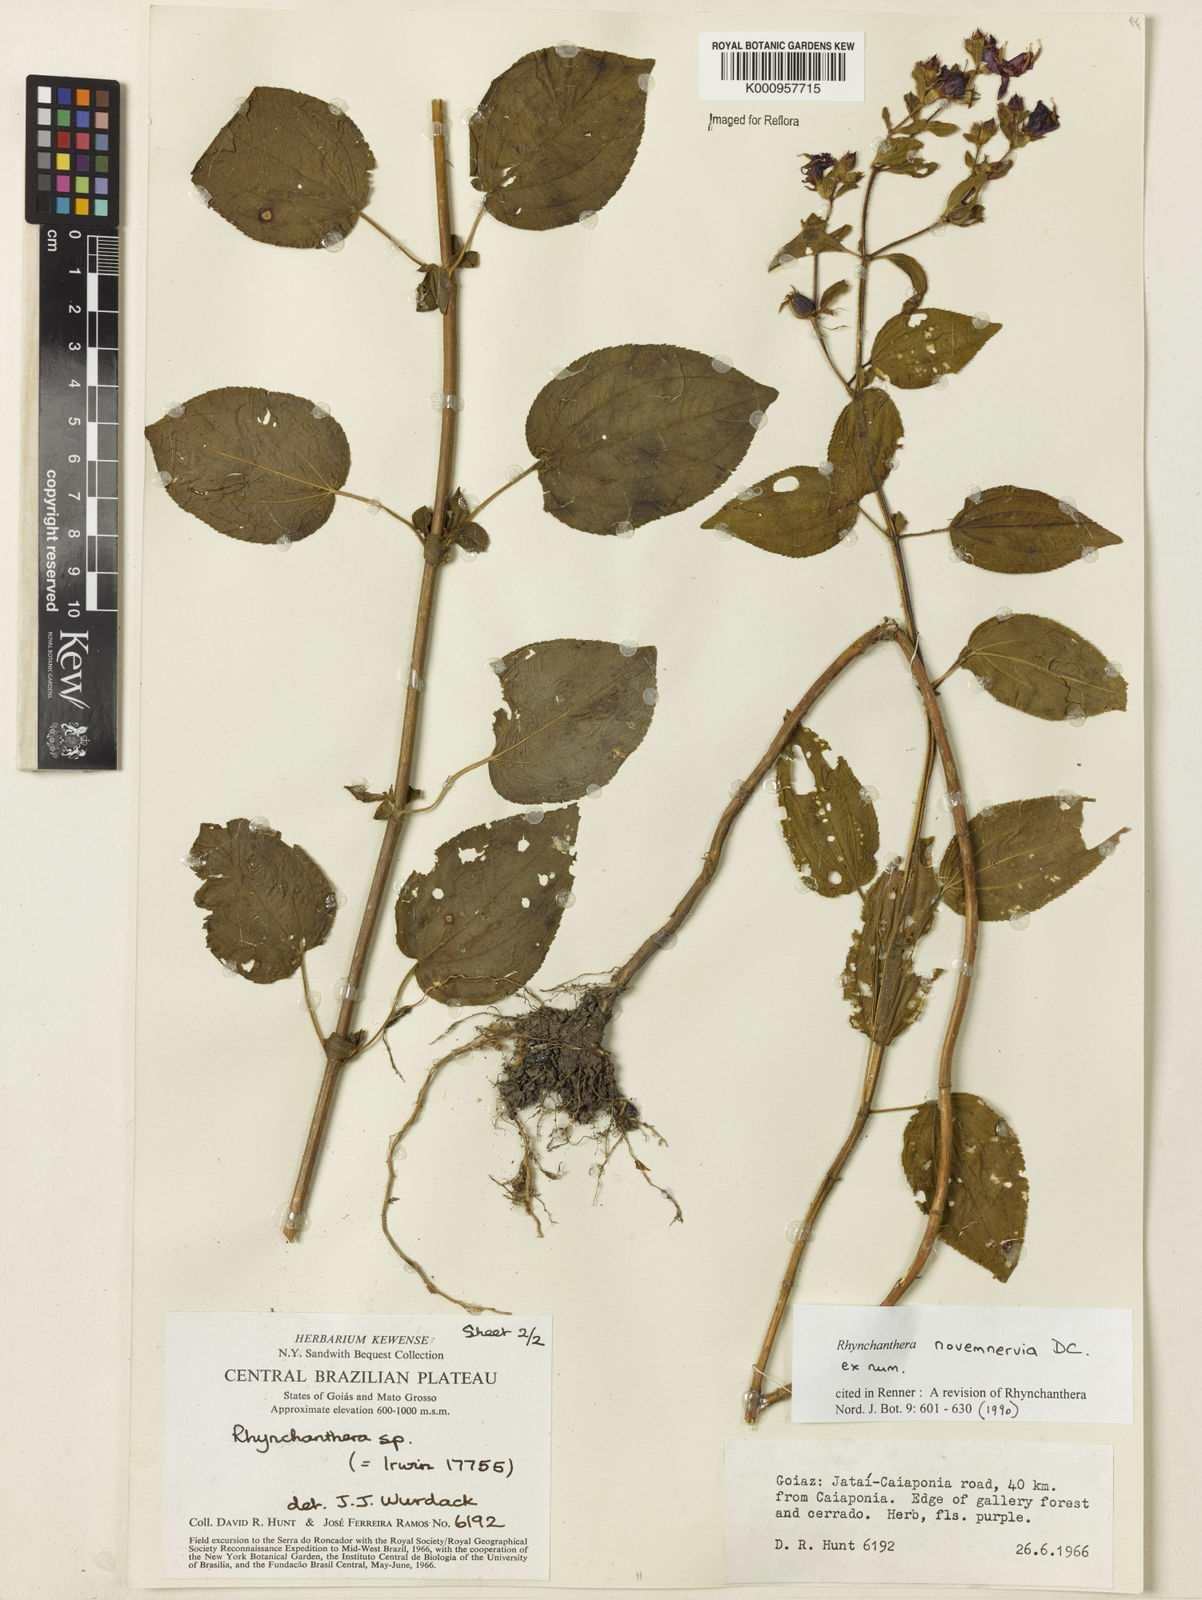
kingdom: Plantae
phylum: Tracheophyta
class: Magnoliopsida
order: Myrtales
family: Melastomataceae
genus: Rhynchanthera
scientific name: Rhynchanthera novemnervia
